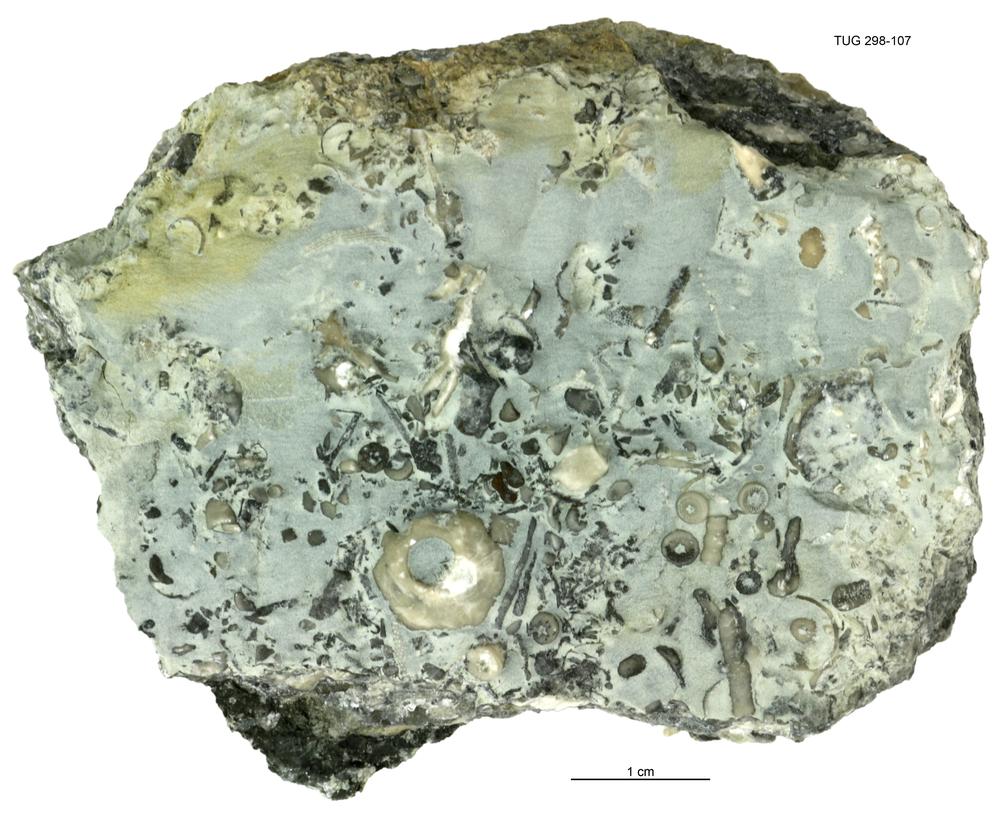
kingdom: Animalia
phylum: Echinodermata
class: Crinoidea
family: Eucalyptocrinitidae
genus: Eucalyptocrinites
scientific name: Eucalyptocrinites
